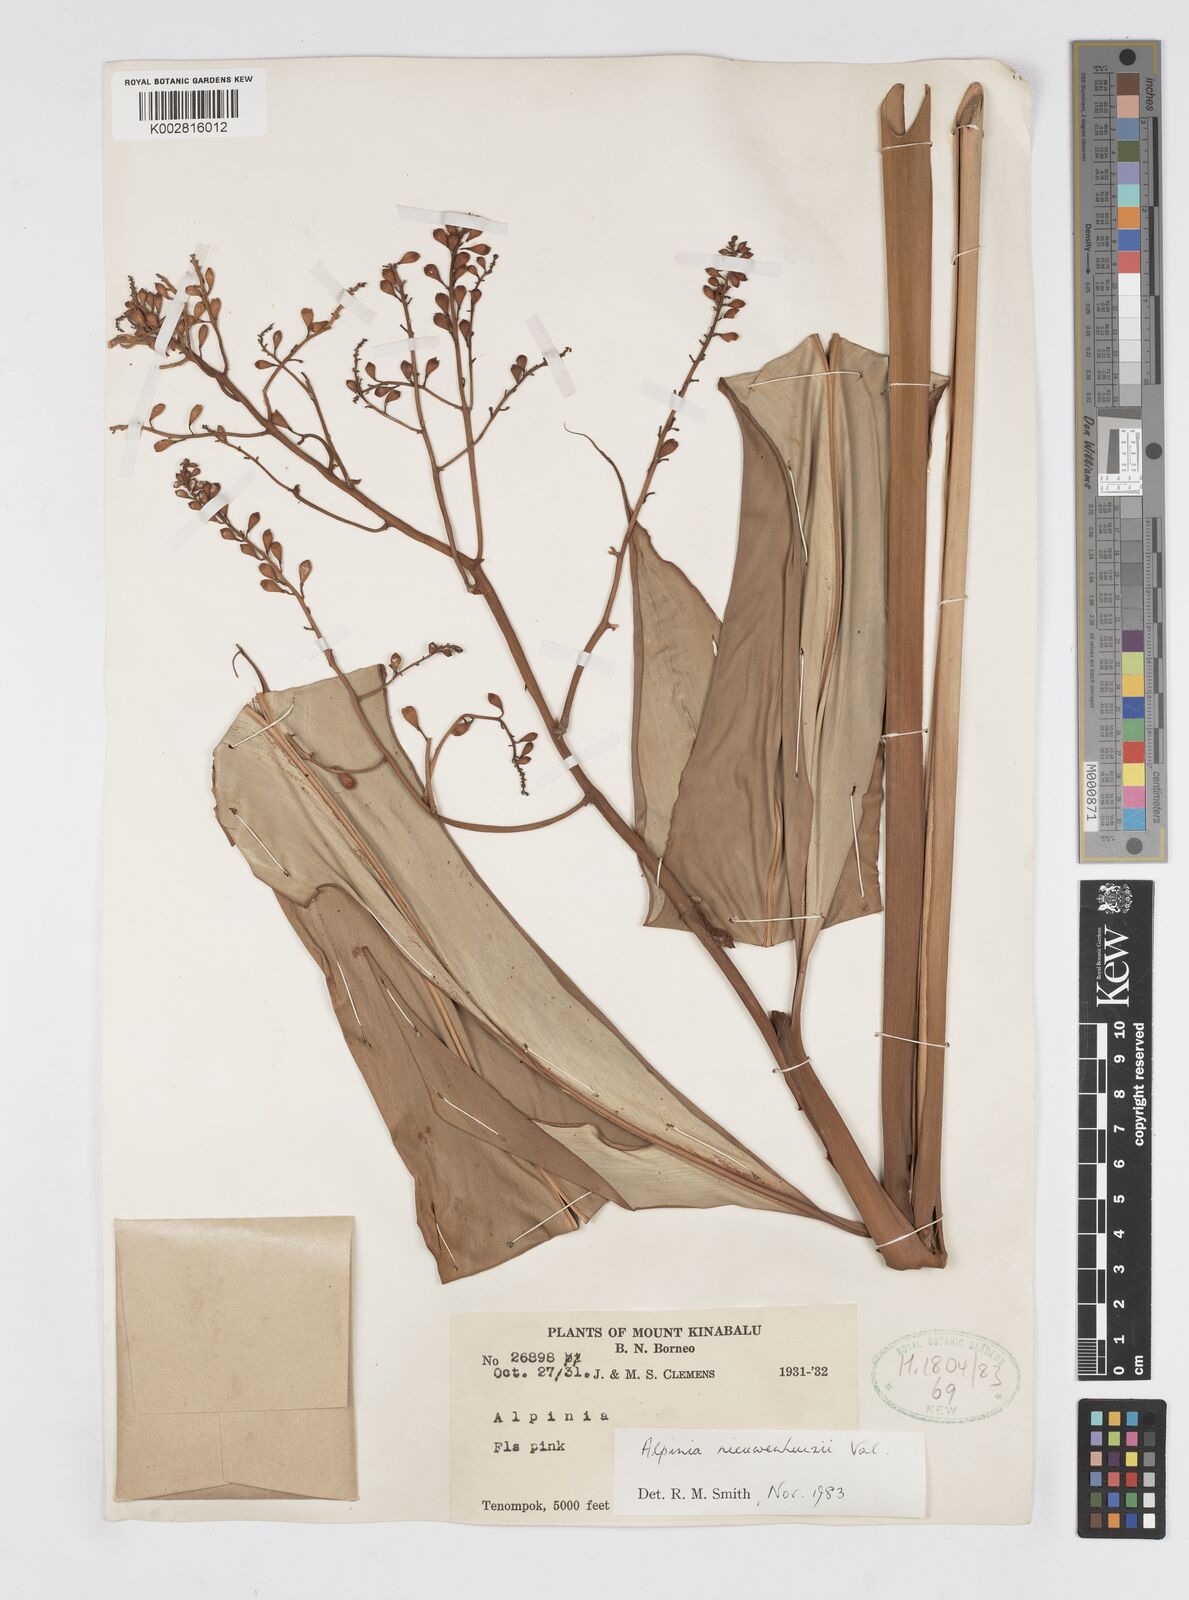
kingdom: Plantae
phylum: Tracheophyta
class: Liliopsida
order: Zingiberales
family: Zingiberaceae
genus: Alpinia
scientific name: Alpinia nieuwenhuizii
